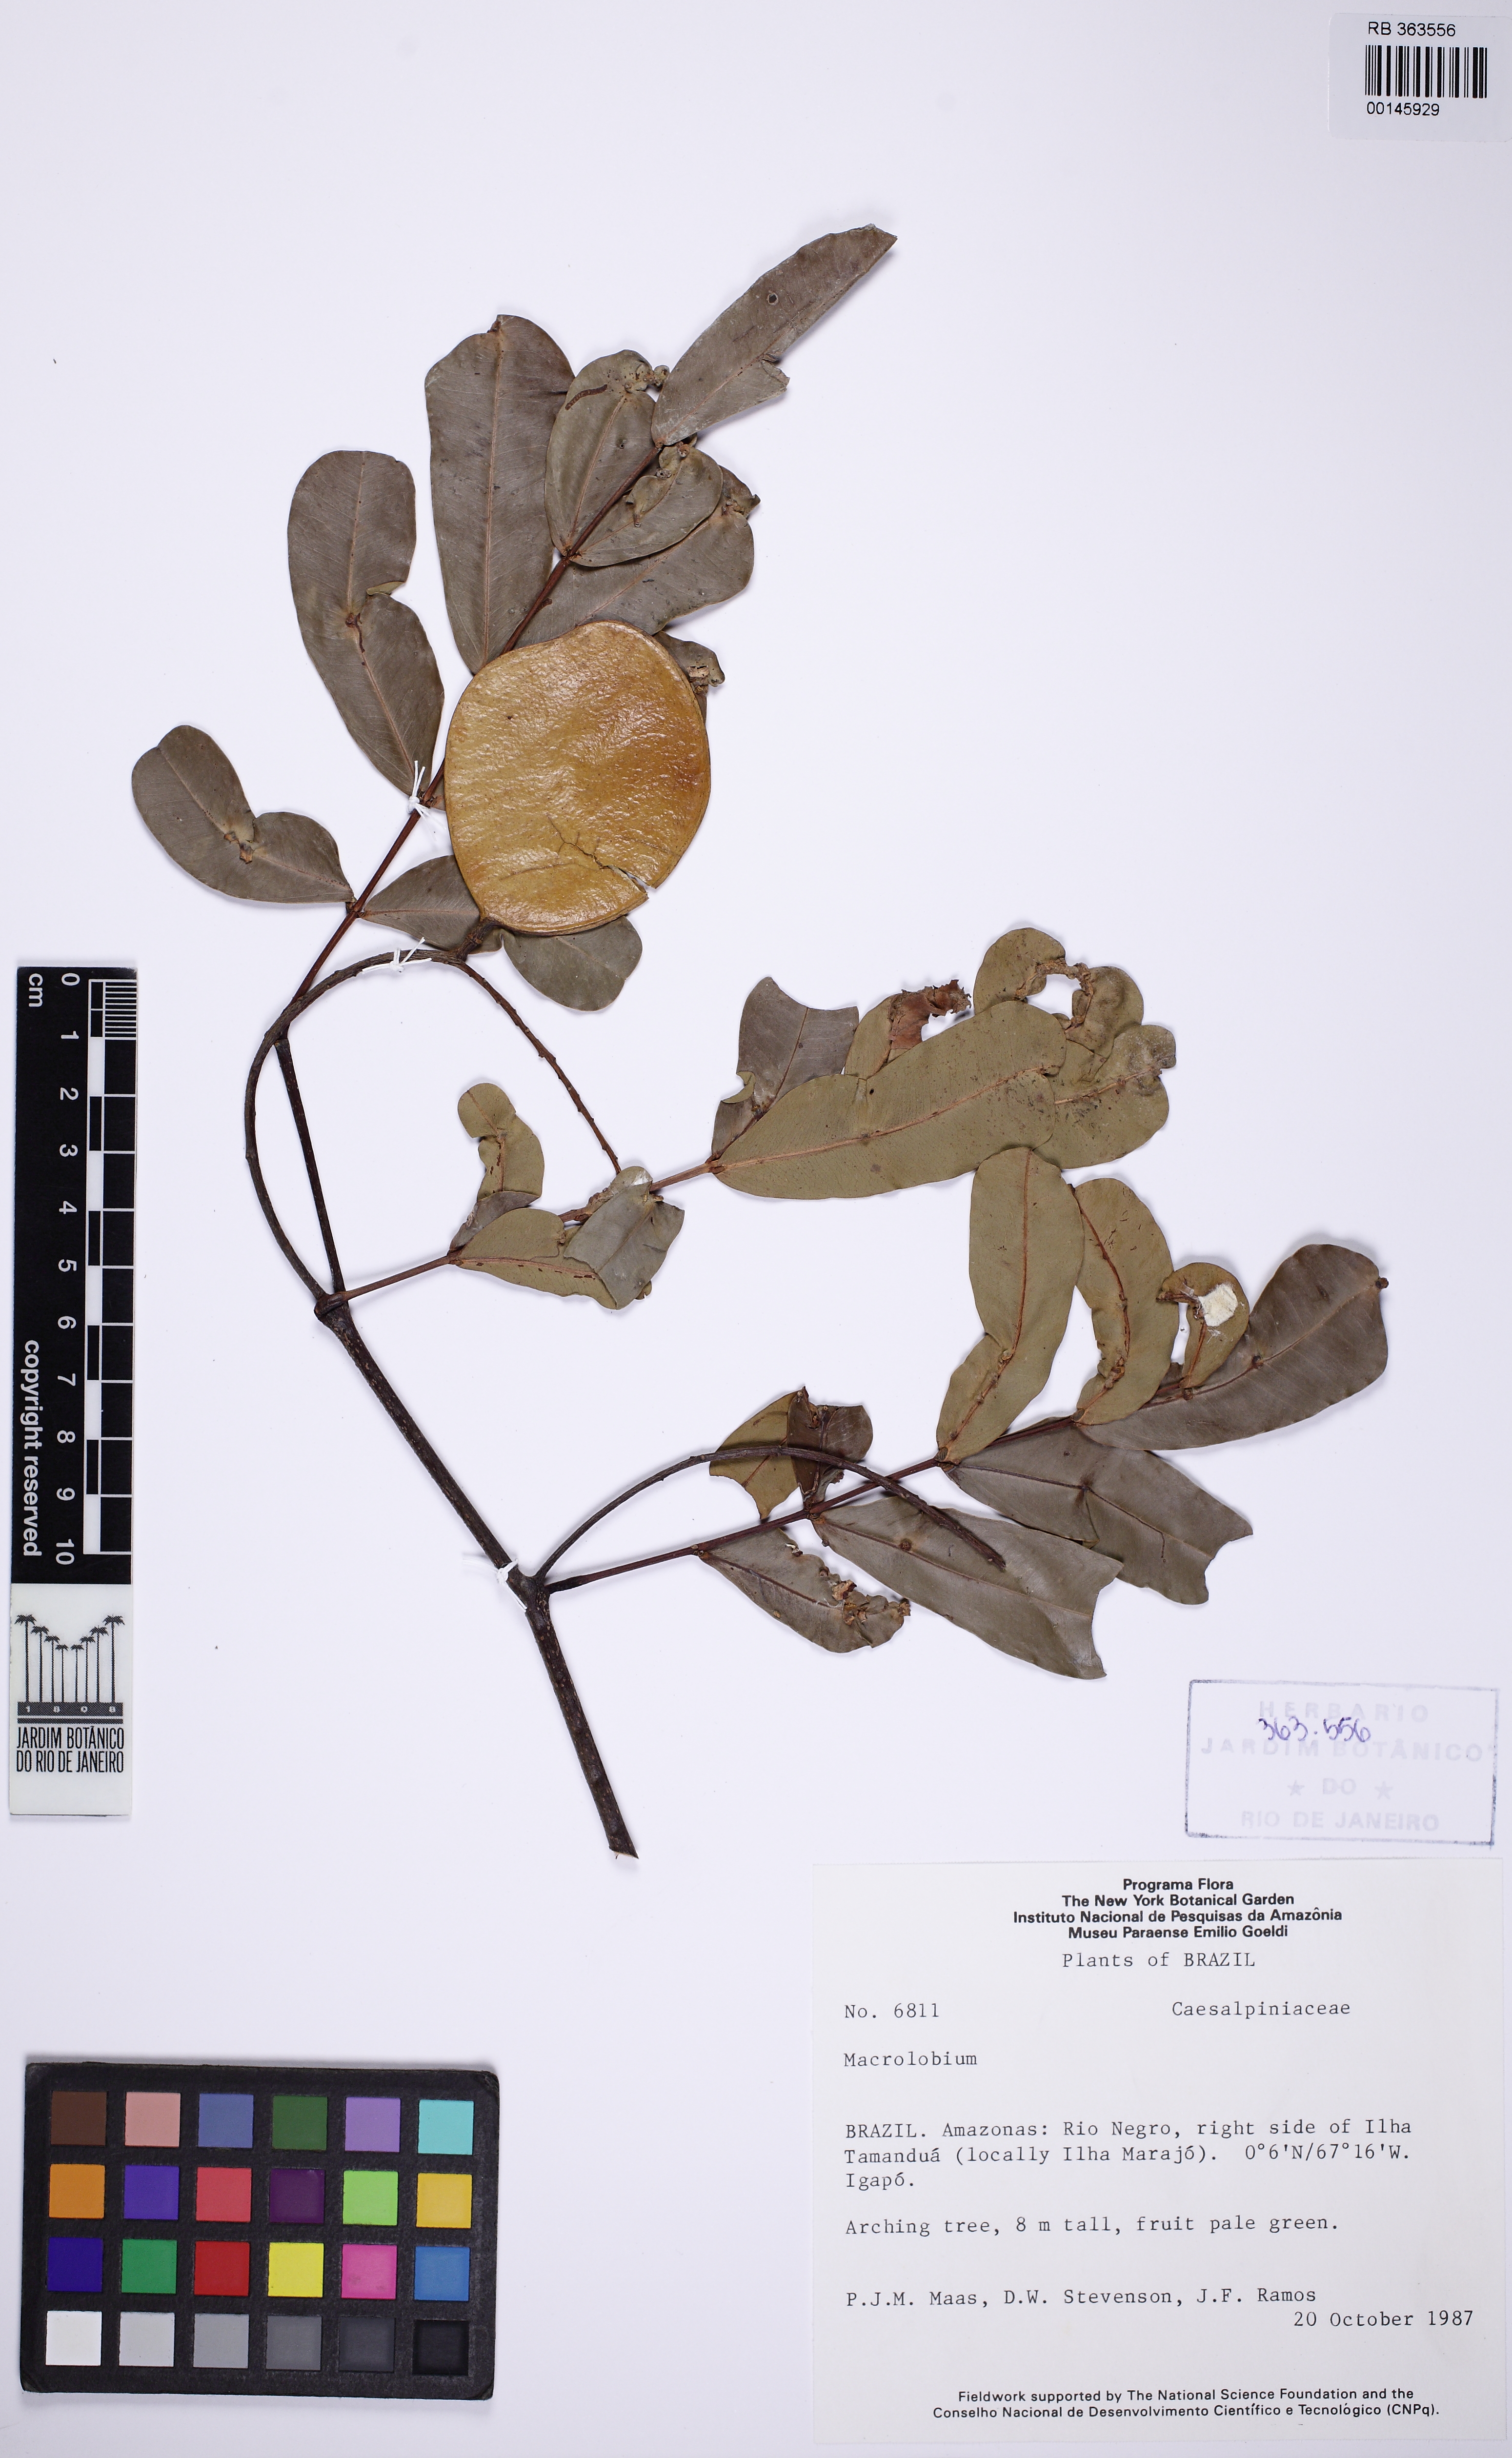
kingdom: Plantae
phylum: Tracheophyta
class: Magnoliopsida
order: Fabales
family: Fabaceae
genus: Macrolobium
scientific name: Macrolobium
